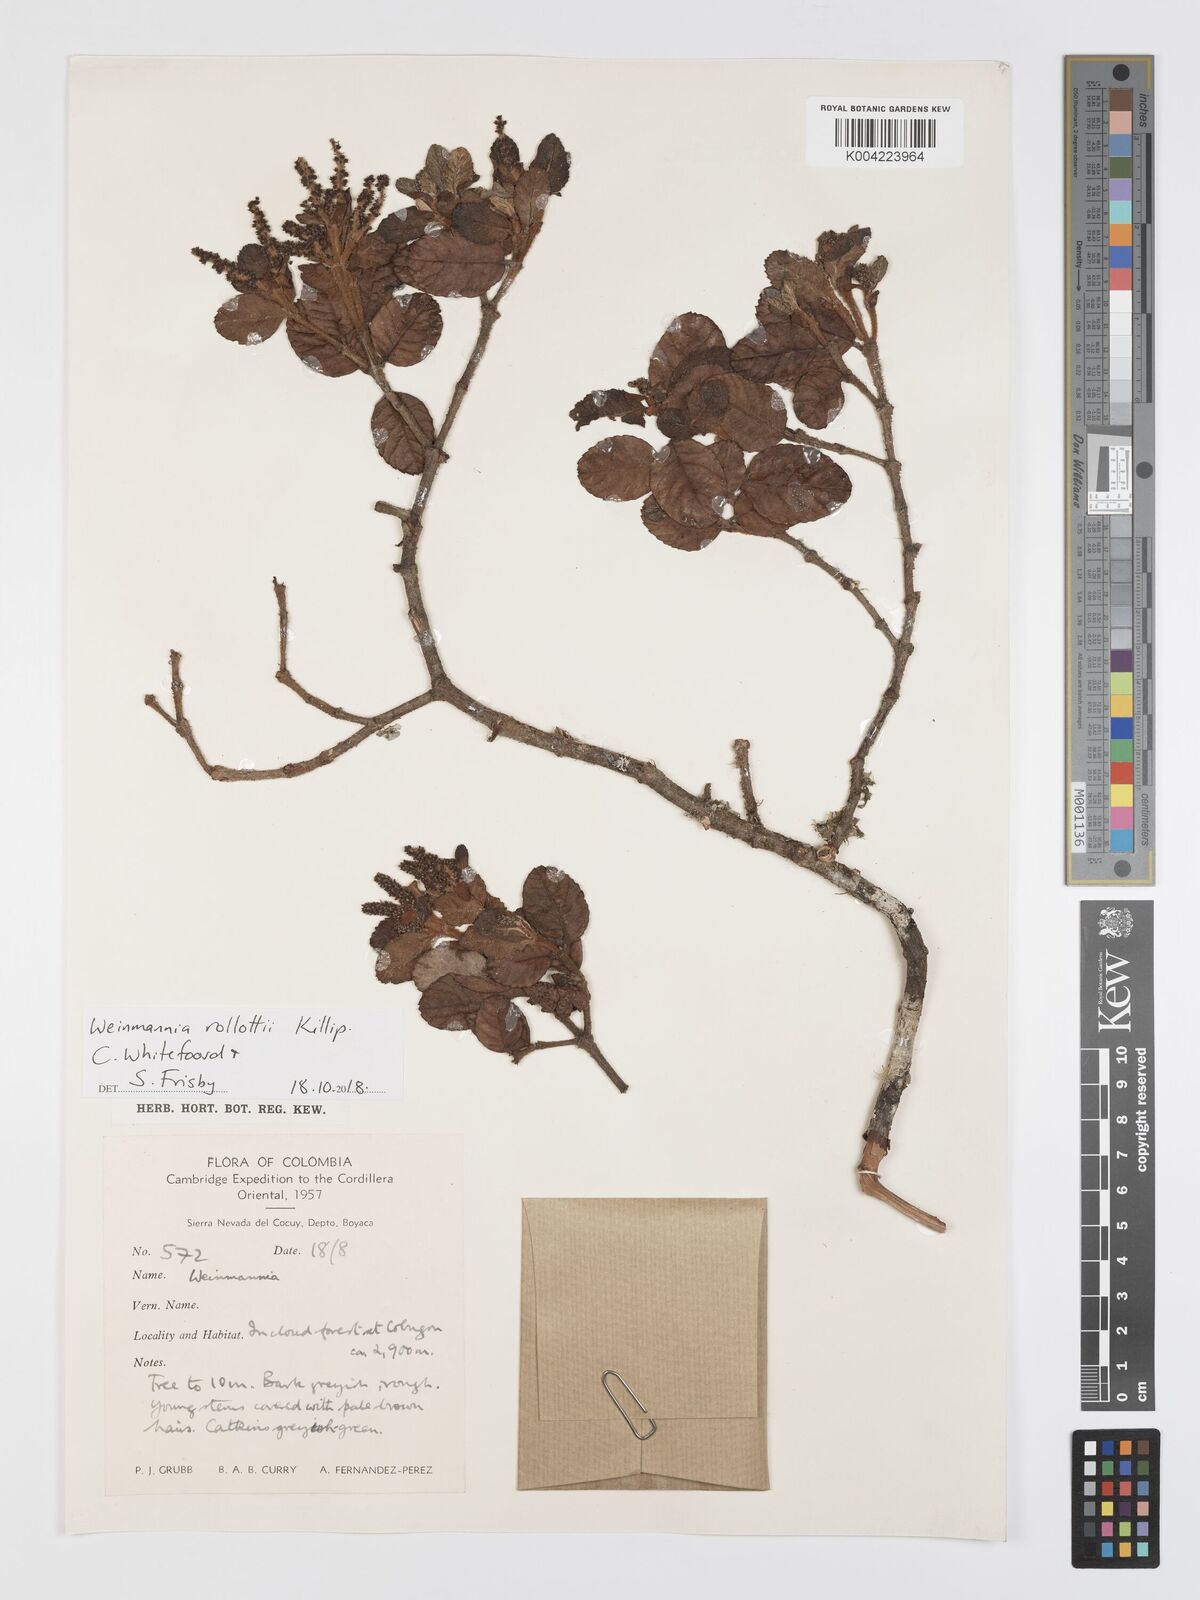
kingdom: Plantae
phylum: Tracheophyta
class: Magnoliopsida
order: Oxalidales
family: Cunoniaceae
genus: Weinmannia
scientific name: Weinmannia rollottii
